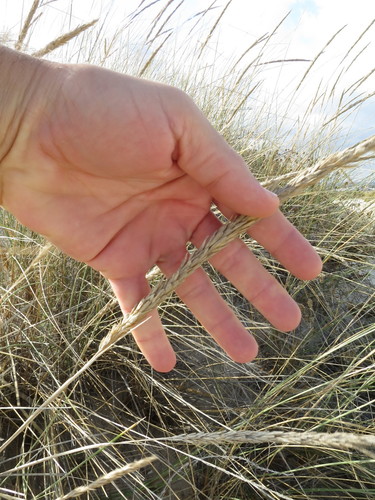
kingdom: Plantae
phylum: Tracheophyta
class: Liliopsida
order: Poales
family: Poaceae
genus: Calamagrostis
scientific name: Calamagrostis arenaria
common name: European beachgrass
